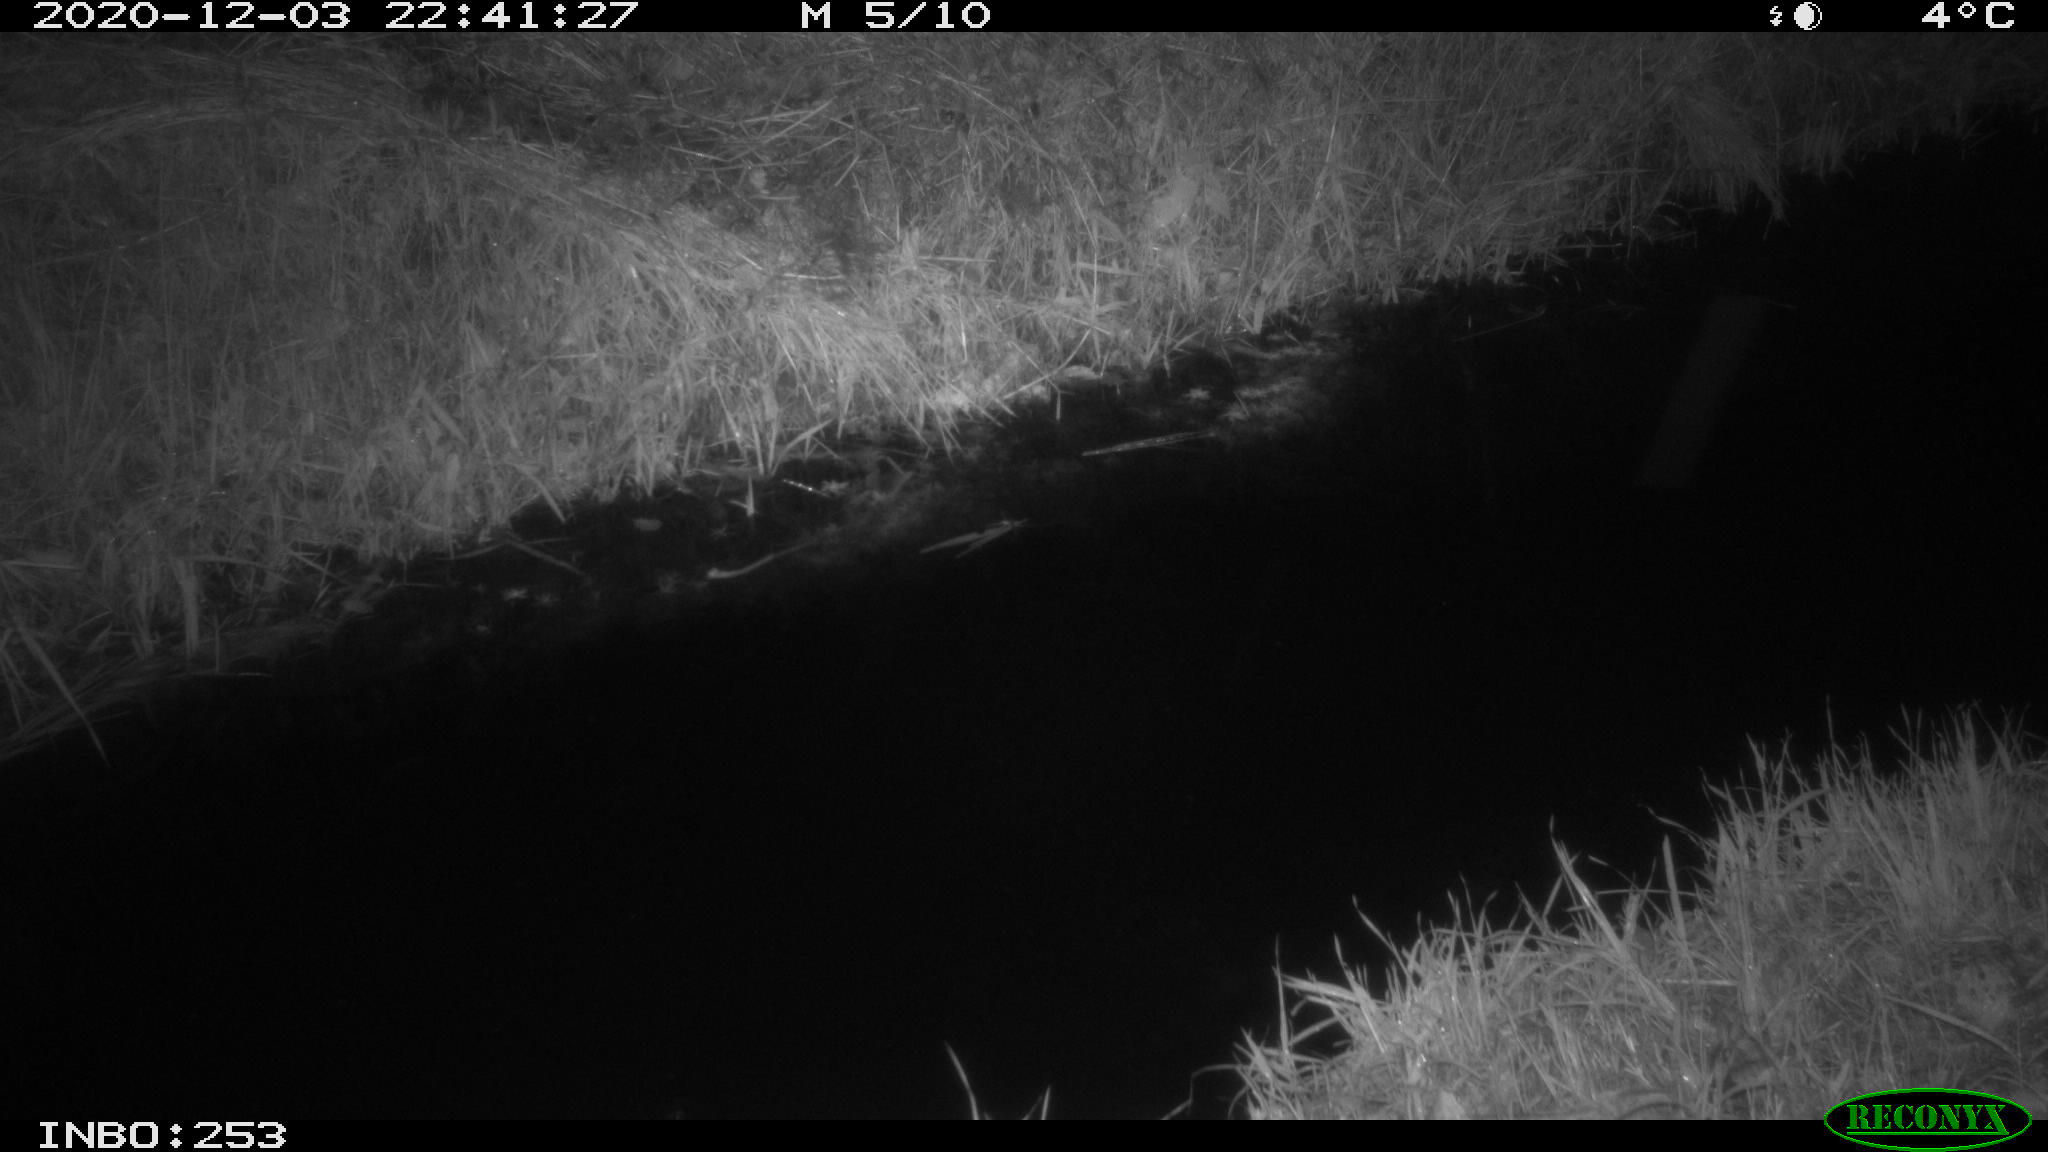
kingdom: Animalia
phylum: Chordata
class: Mammalia
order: Rodentia
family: Muridae
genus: Rattus
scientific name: Rattus norvegicus
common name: Brown rat
